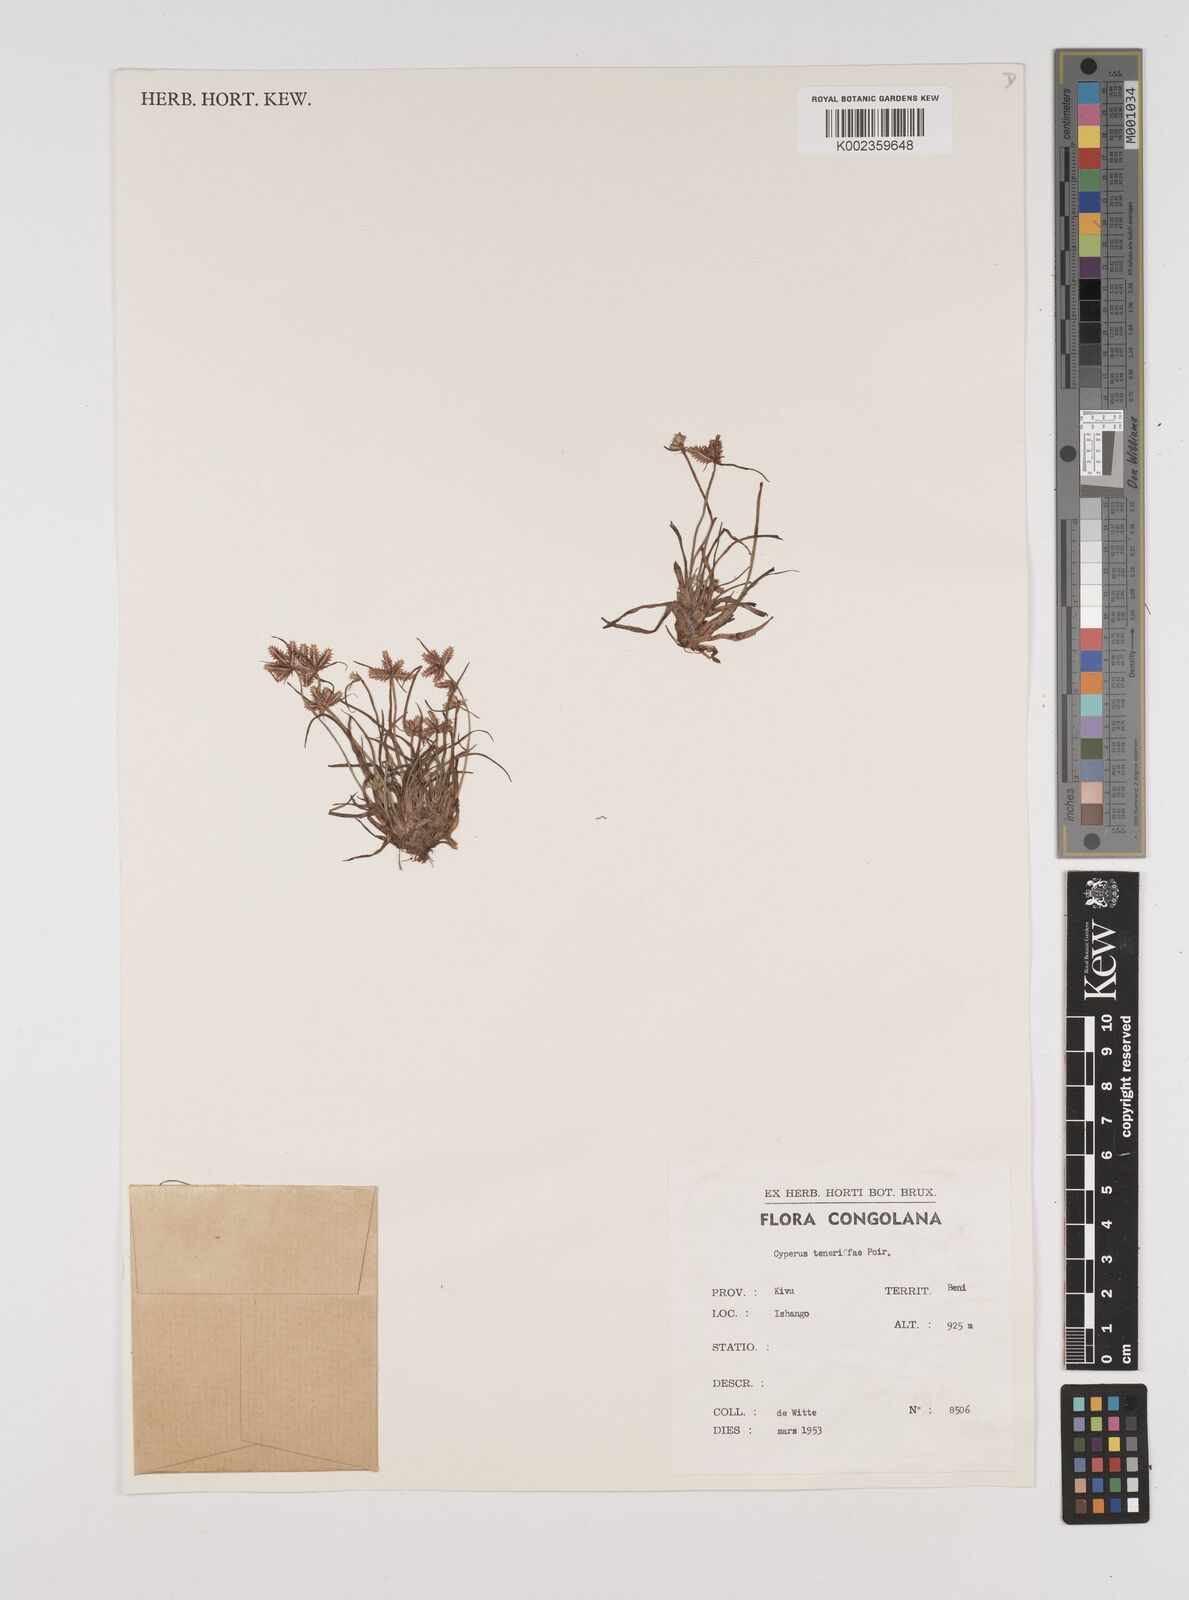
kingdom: Plantae
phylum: Tracheophyta
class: Liliopsida
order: Poales
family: Cyperaceae
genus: Cyperus
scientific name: Cyperus rubicundus
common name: Coco-grass
